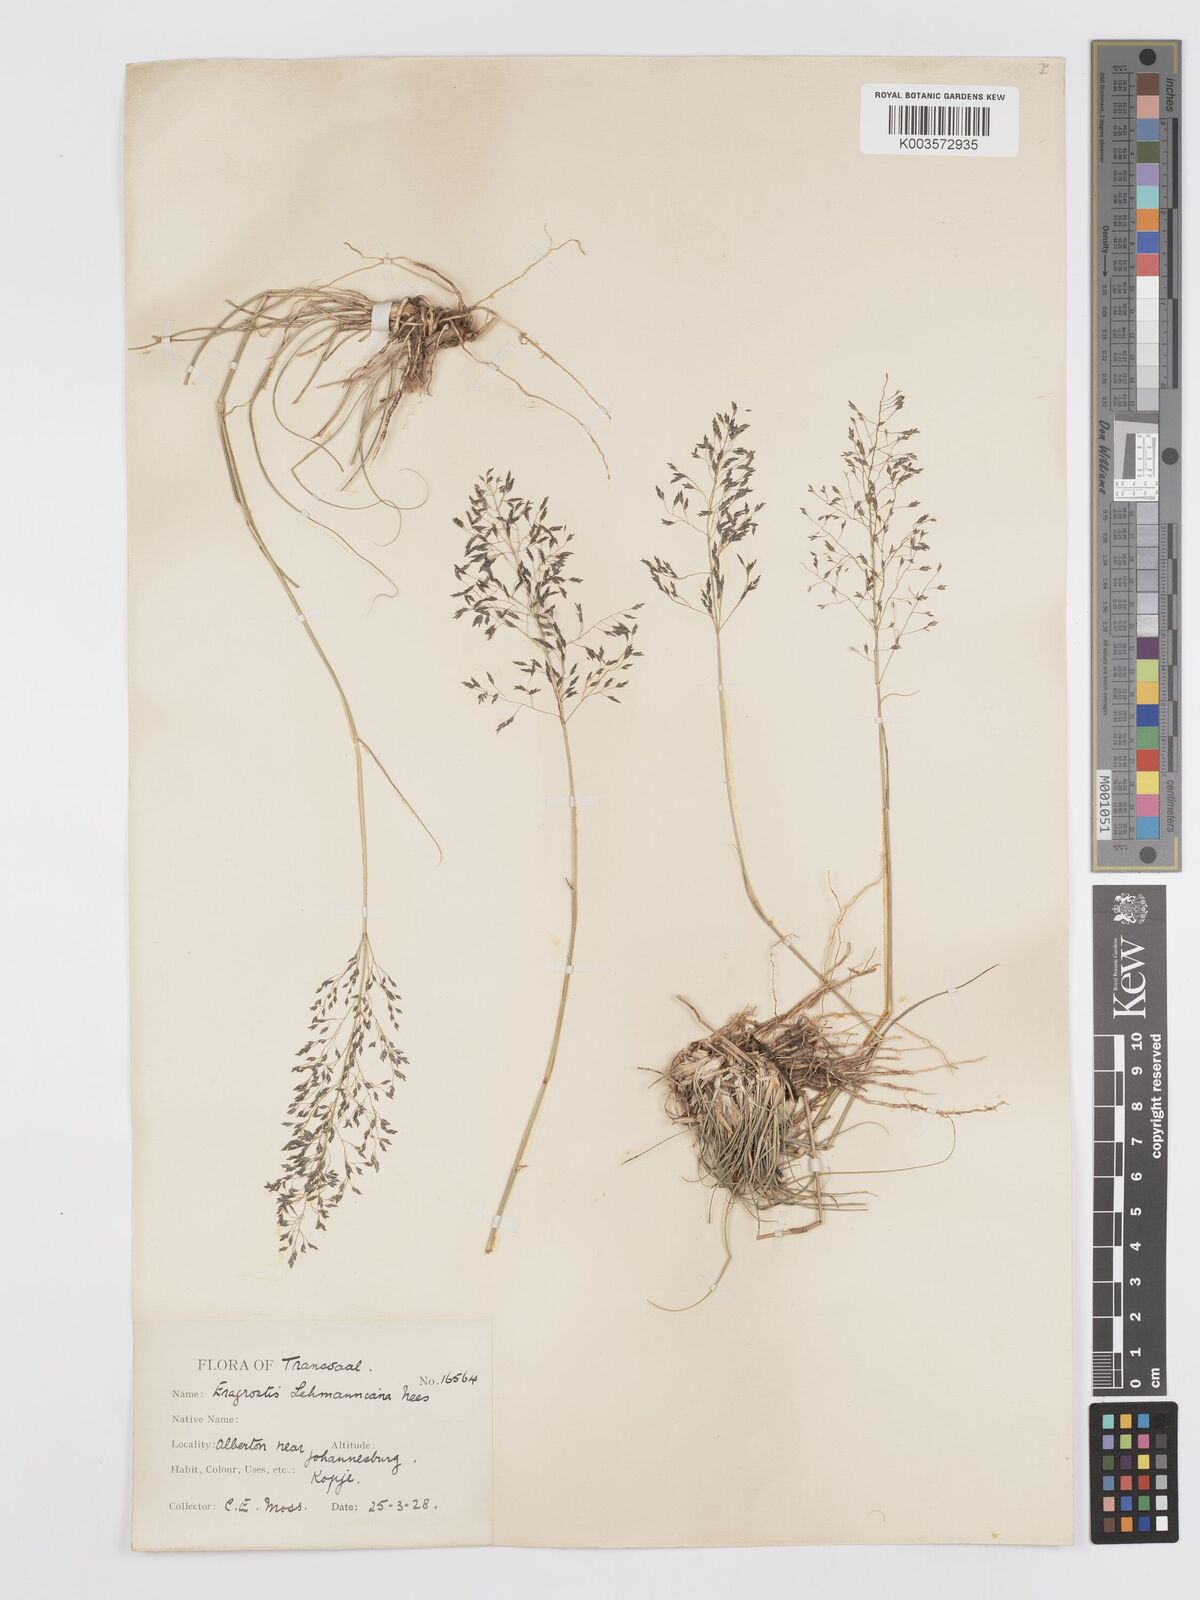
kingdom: Plantae
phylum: Tracheophyta
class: Liliopsida
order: Poales
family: Poaceae
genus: Eragrostis
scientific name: Eragrostis curvula
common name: African love-grass
